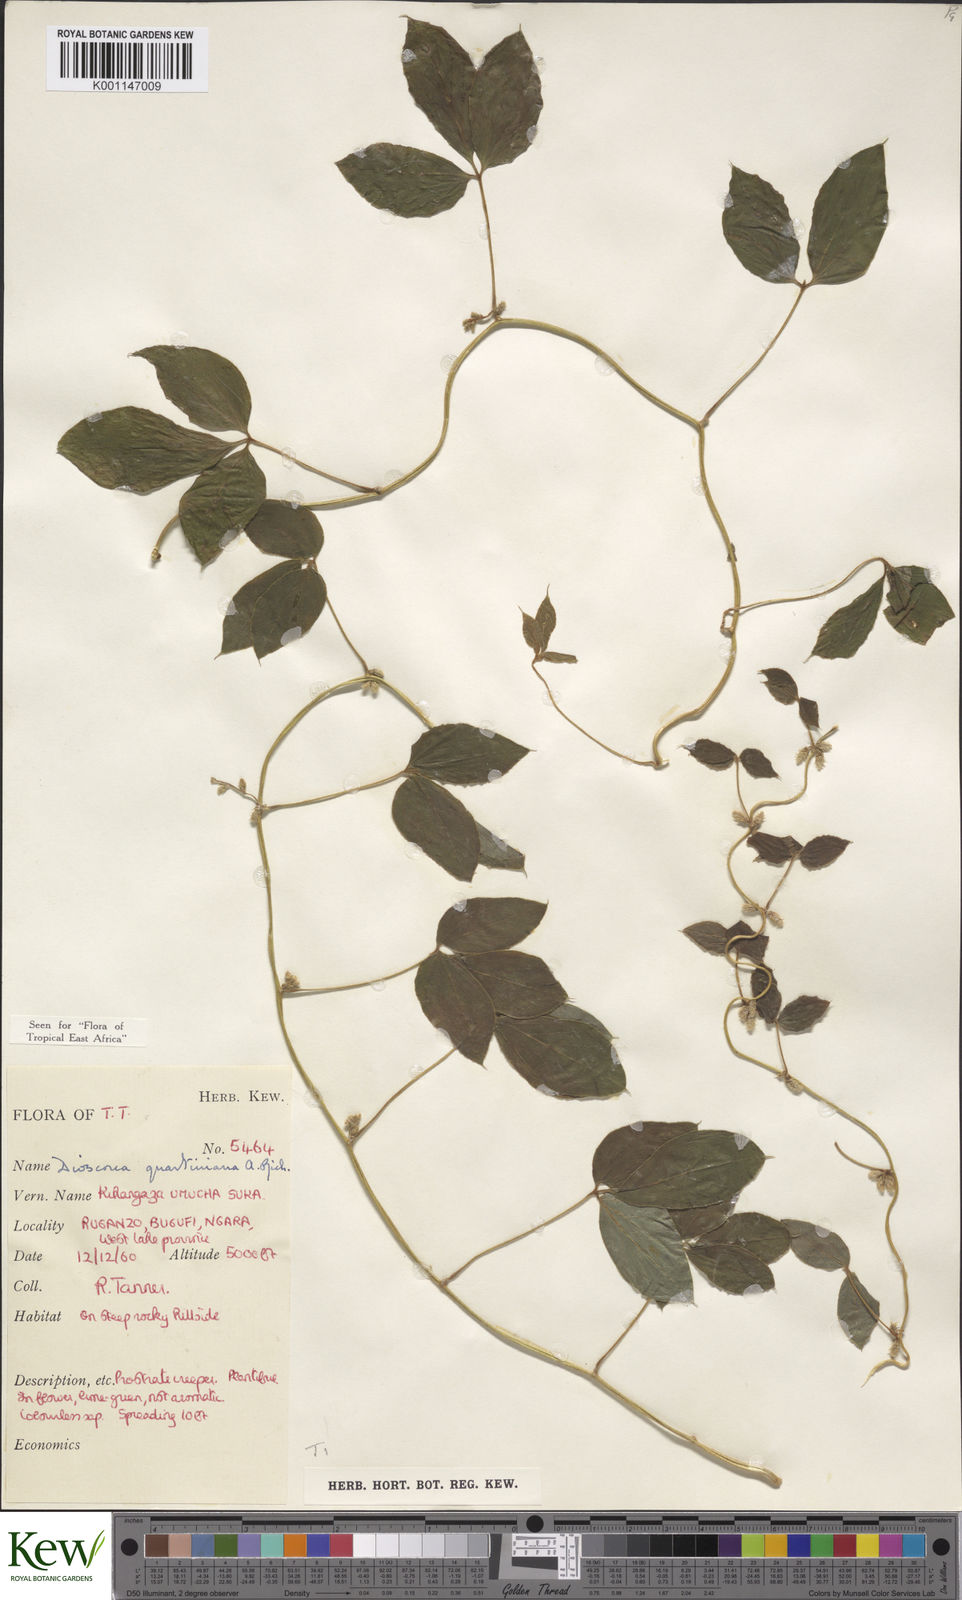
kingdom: Plantae
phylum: Tracheophyta
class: Liliopsida
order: Dioscoreales
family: Dioscoreaceae
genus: Dioscorea
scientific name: Dioscorea quartiniana
